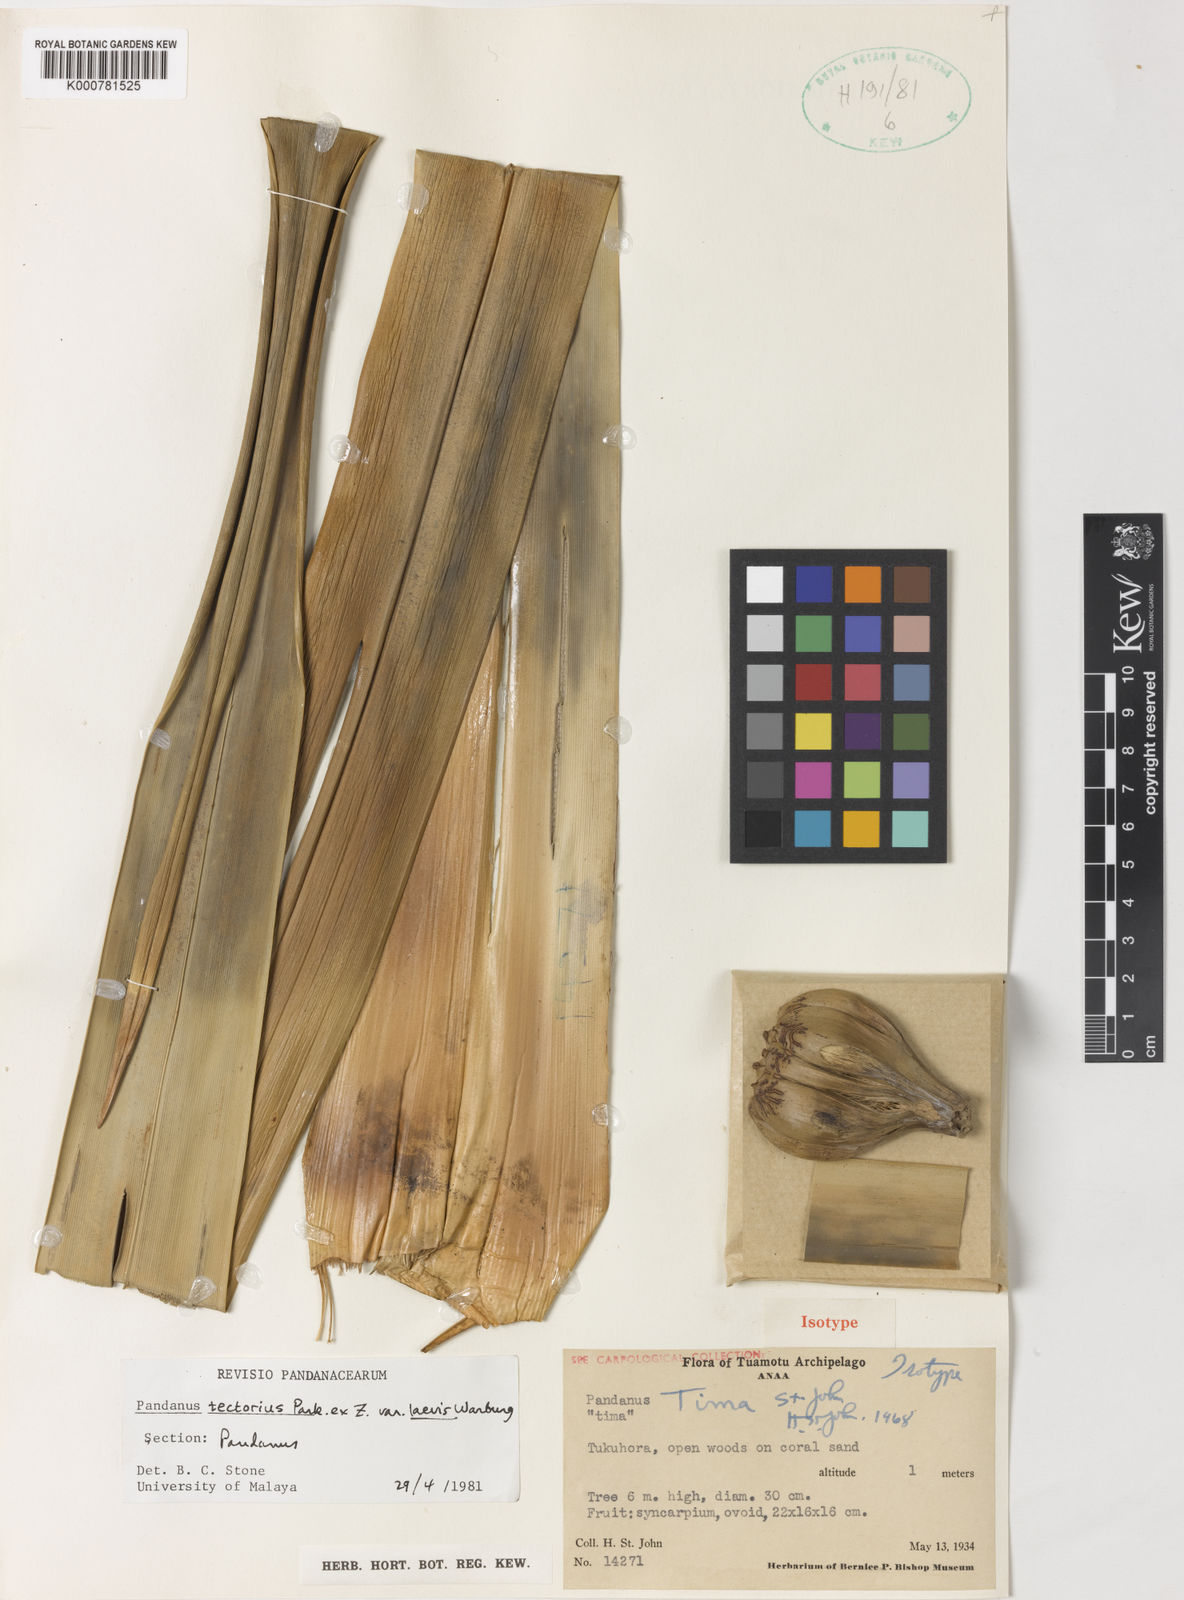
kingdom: Plantae
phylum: Tracheophyta
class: Liliopsida
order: Pandanales
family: Pandanaceae
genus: Pandanus
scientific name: Pandanus tectorius
